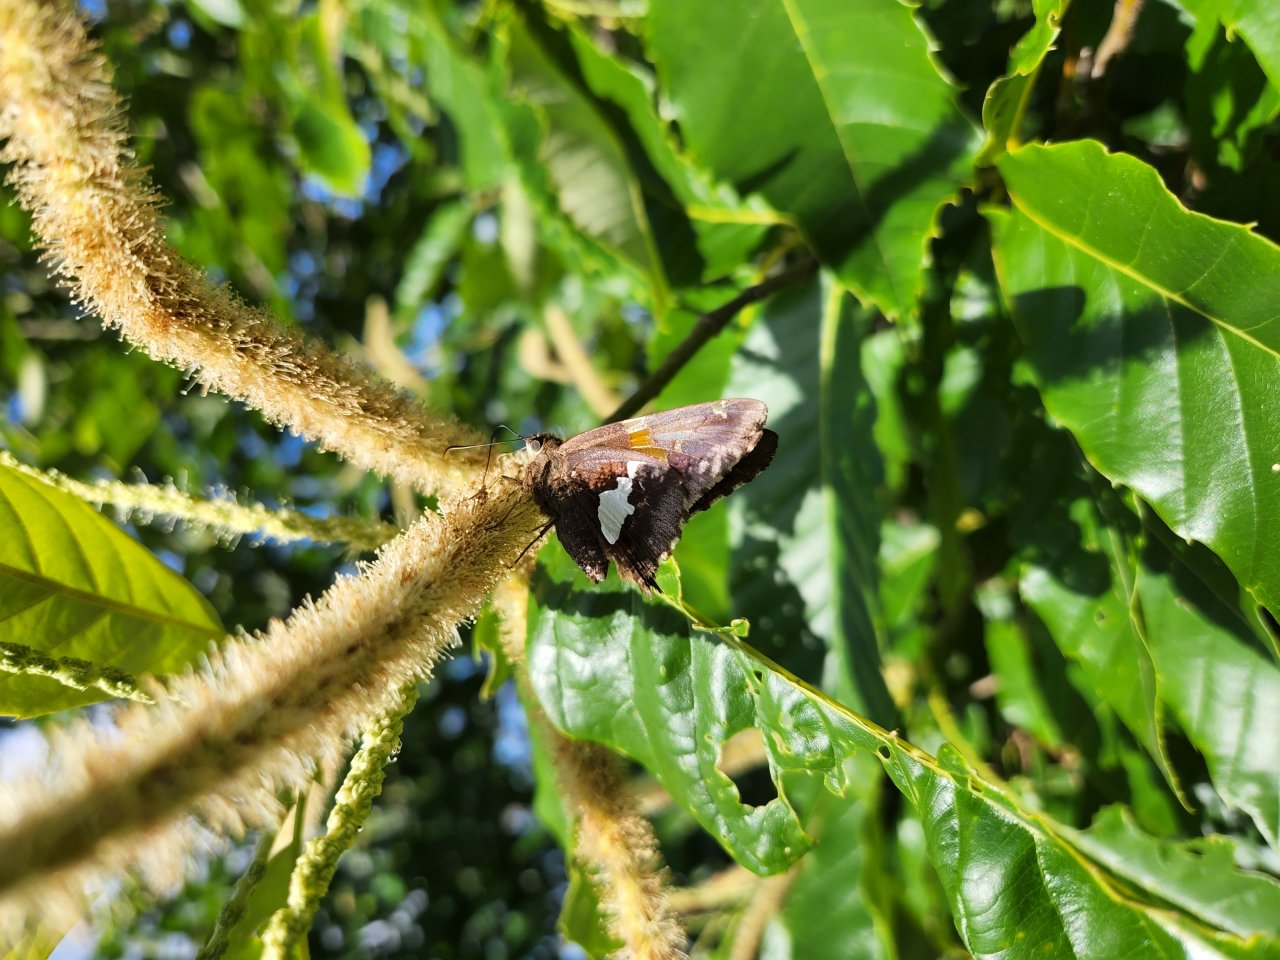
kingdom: Animalia
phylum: Arthropoda
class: Insecta
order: Lepidoptera
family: Hesperiidae
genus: Epargyreus
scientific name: Epargyreus clarus
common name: Silver-spotted Skipper
